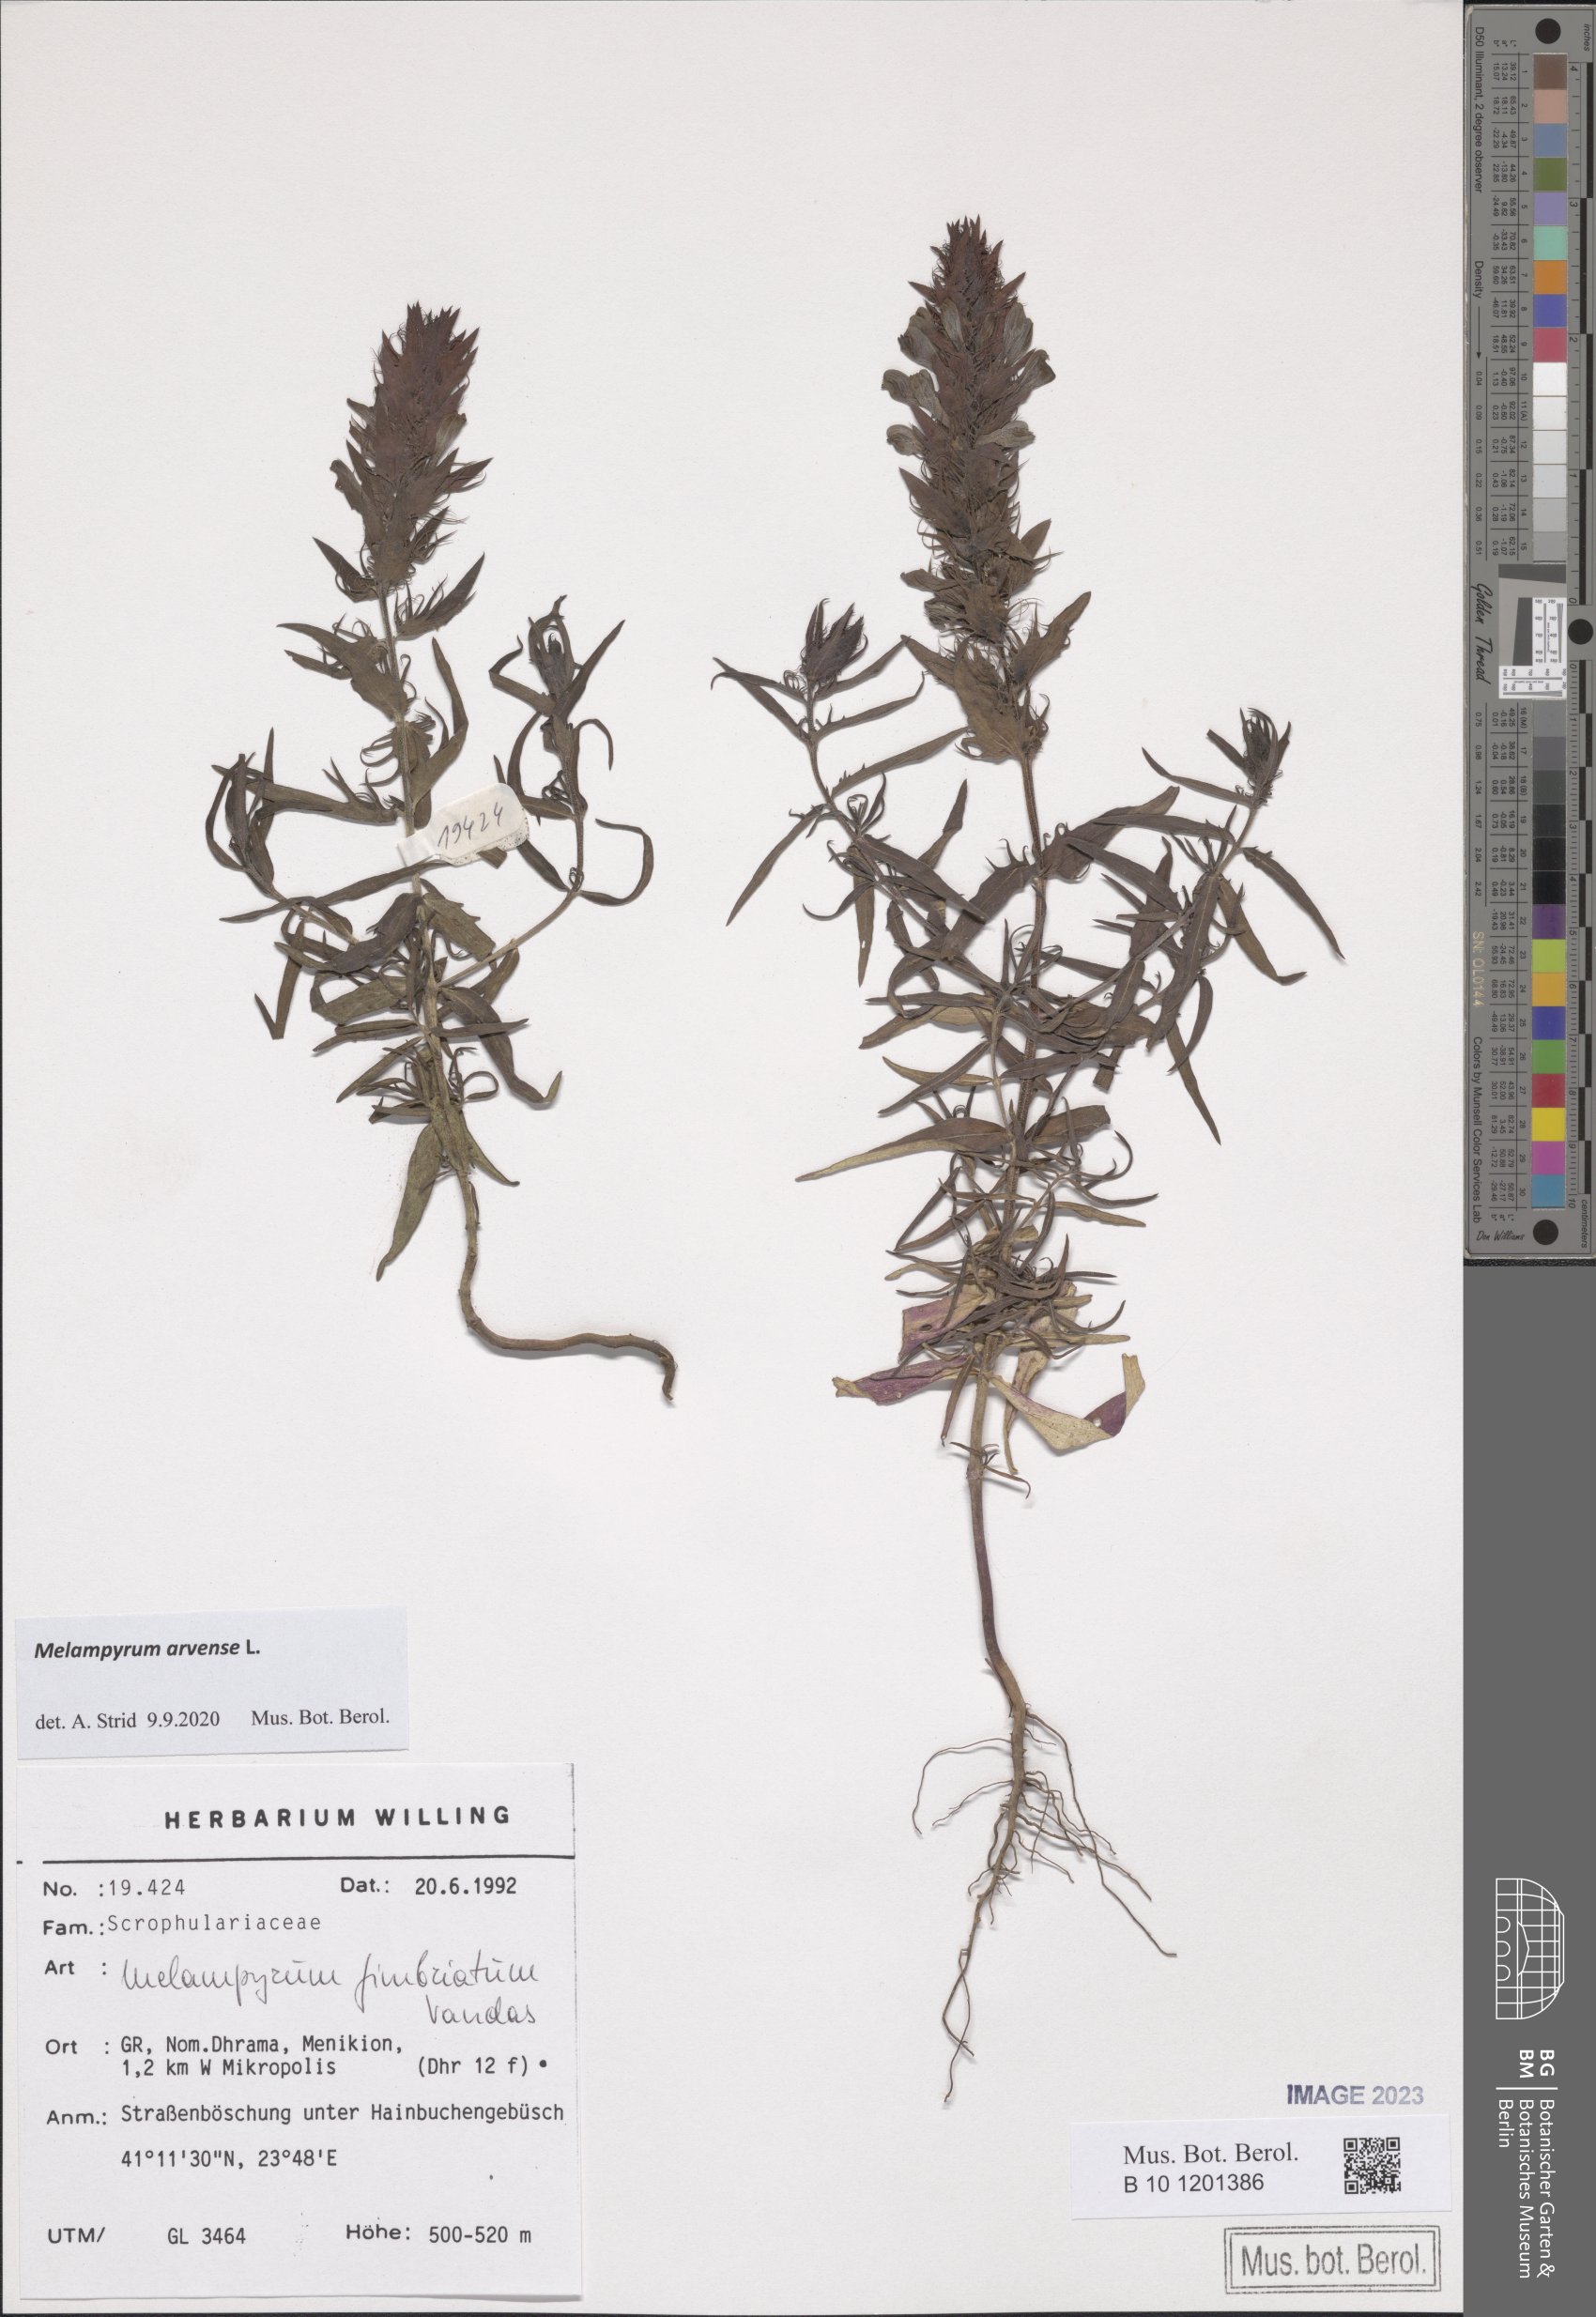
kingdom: Plantae
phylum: Tracheophyta
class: Magnoliopsida
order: Lamiales
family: Orobanchaceae
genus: Melampyrum
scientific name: Melampyrum arvense
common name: Field cow-wheat
